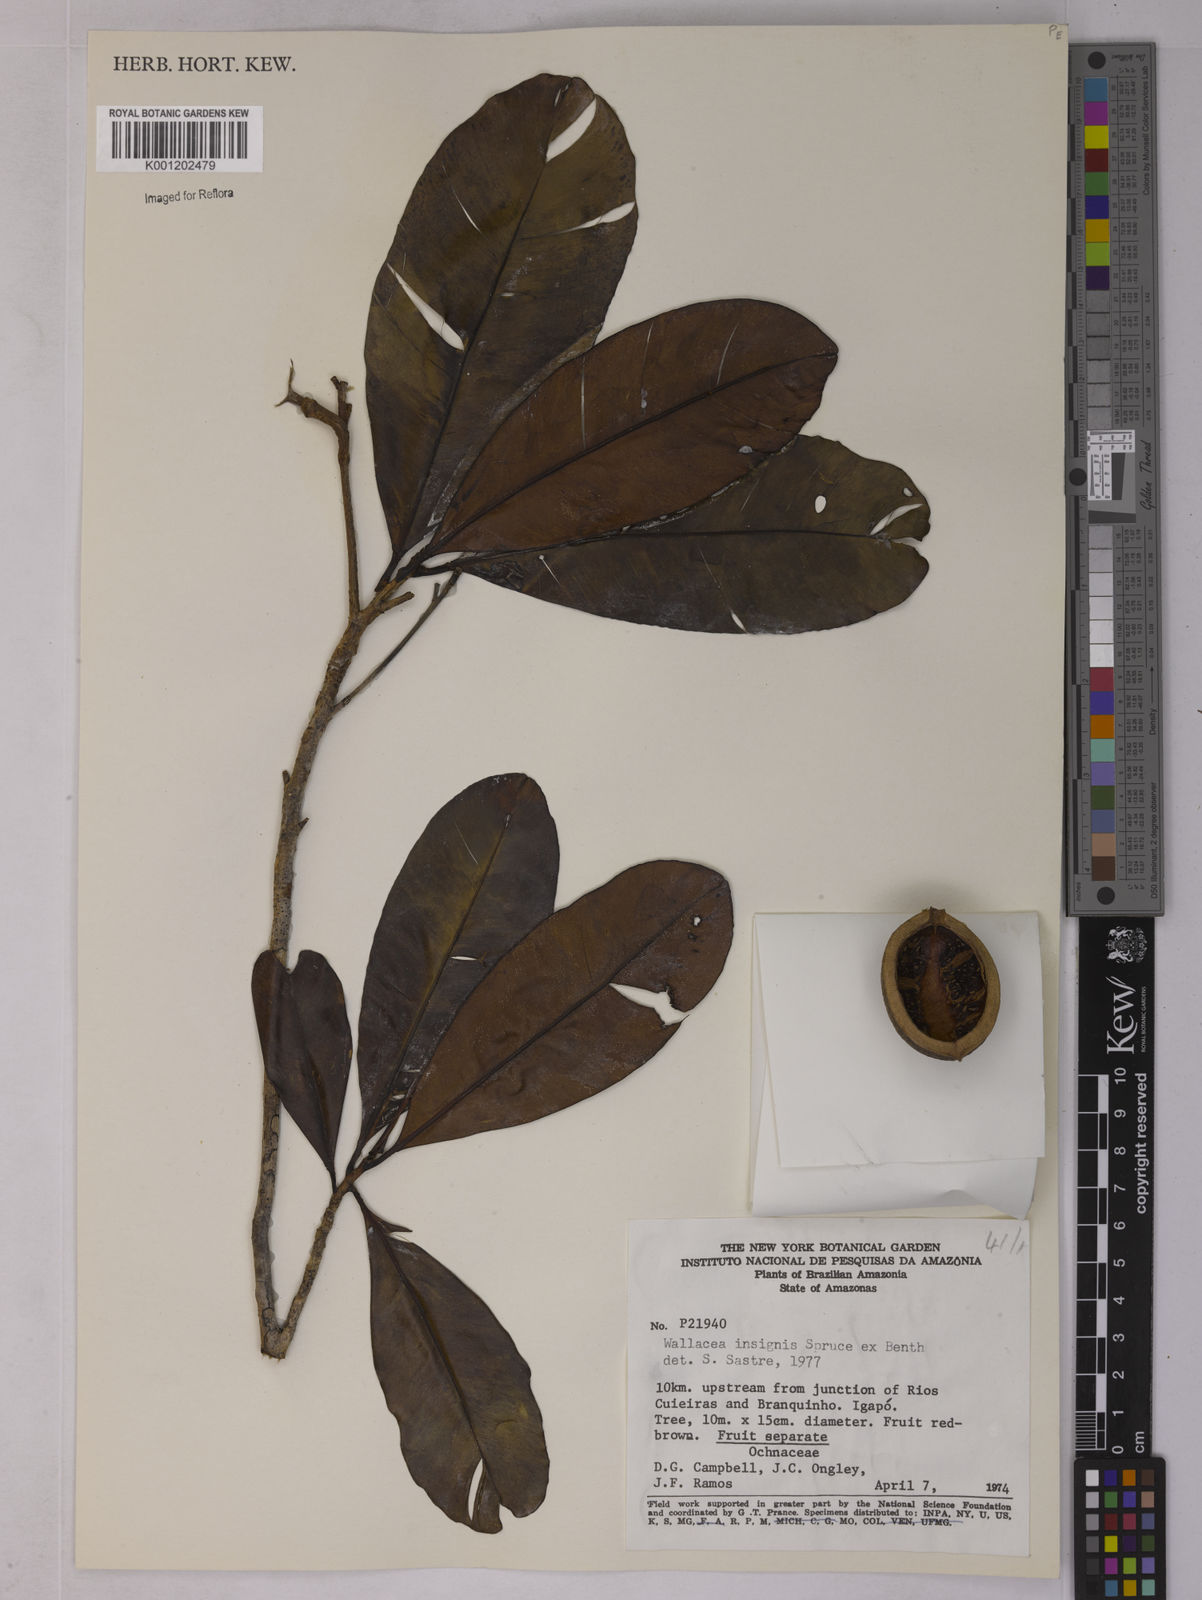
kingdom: Plantae
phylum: Tracheophyta
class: Magnoliopsida
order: Malpighiales
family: Ochnaceae
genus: Wallacea
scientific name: Wallacea insignis
